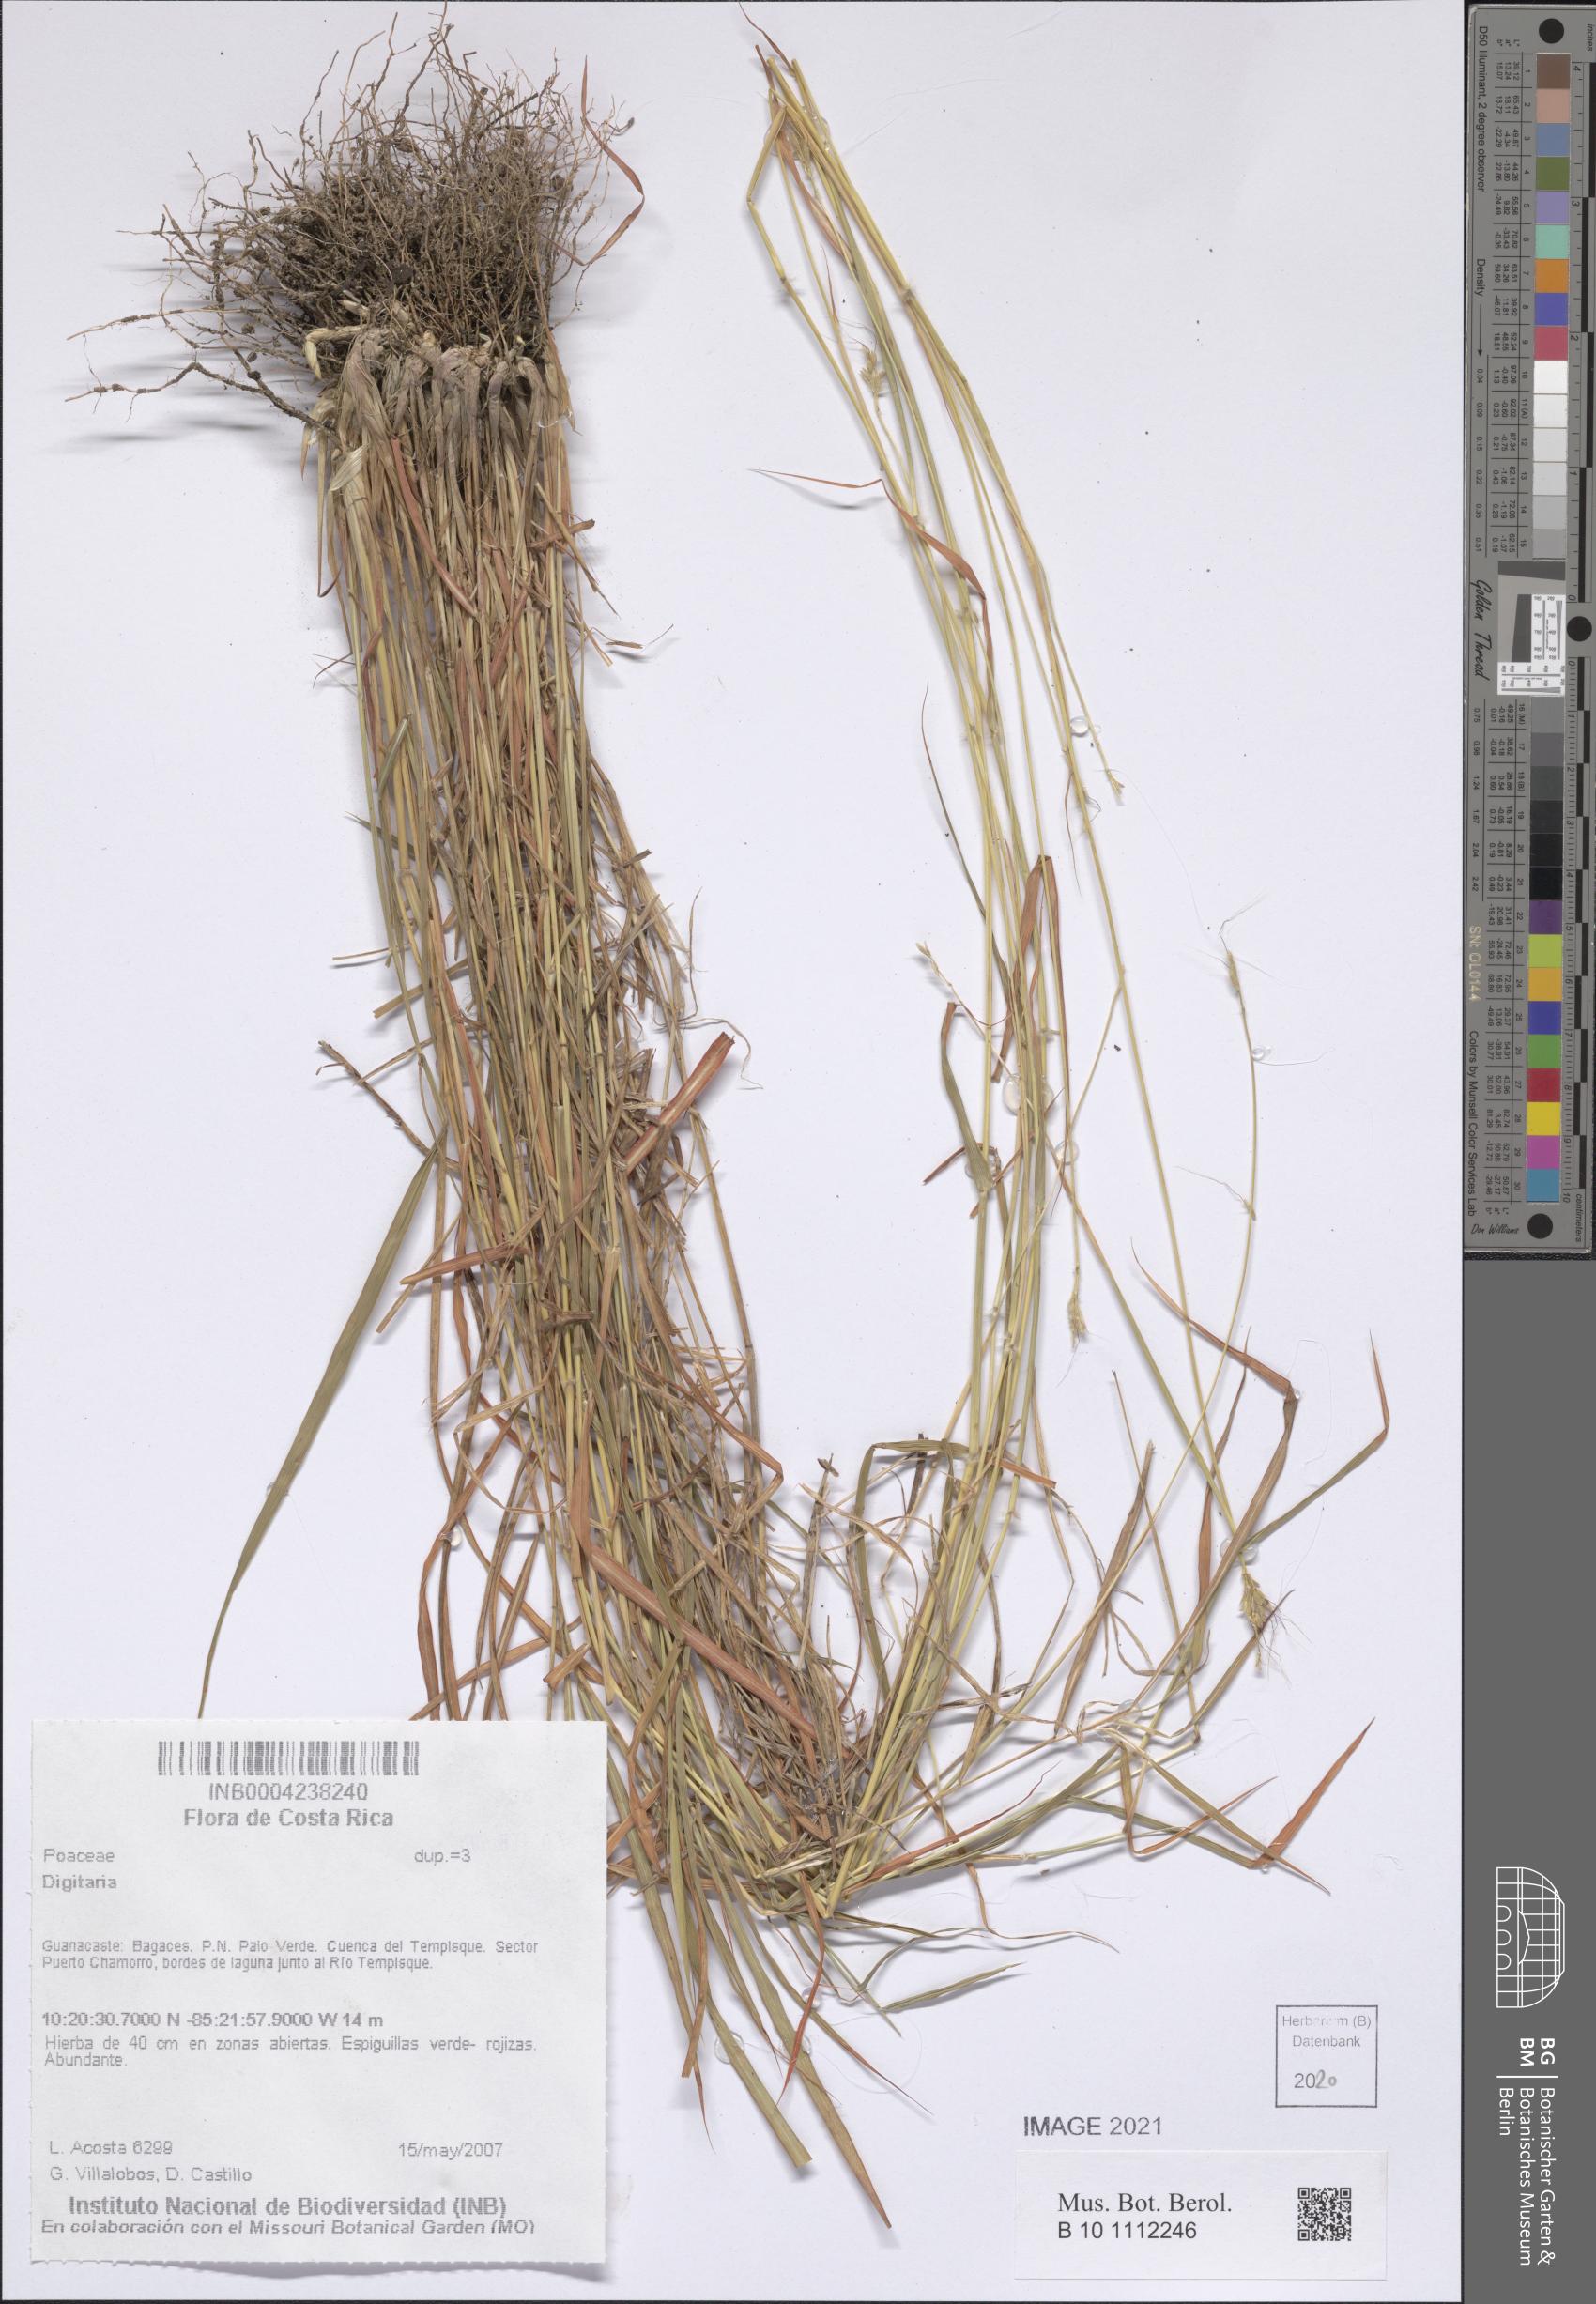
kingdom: Plantae
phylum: Tracheophyta
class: Liliopsida
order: Poales
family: Poaceae
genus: Digitaria
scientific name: Digitaria
